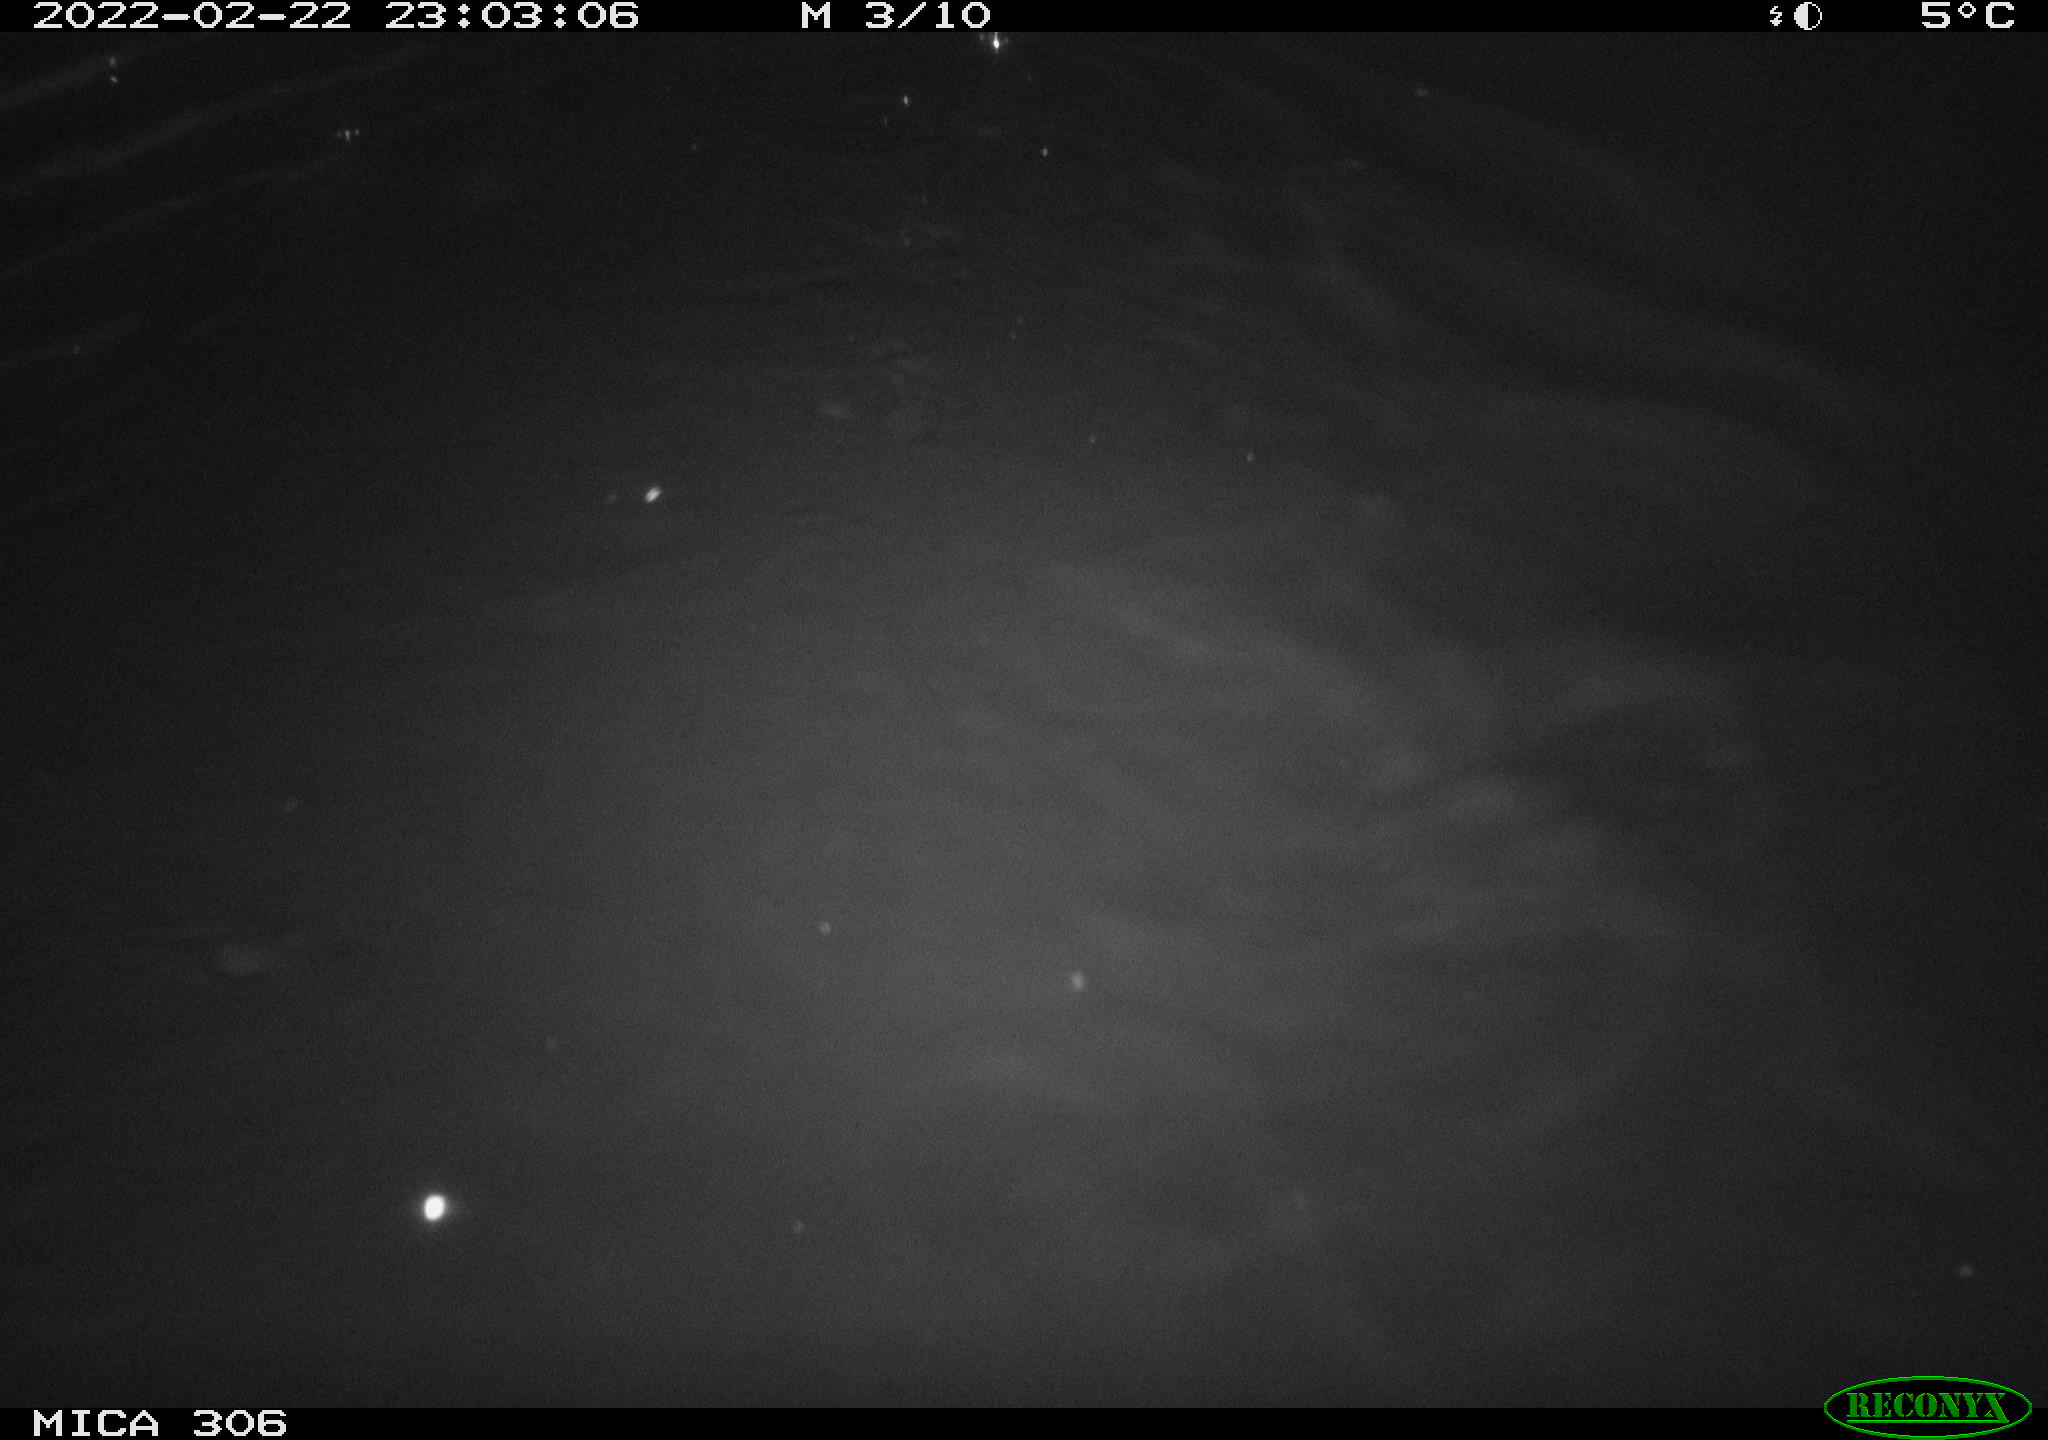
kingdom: Animalia
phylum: Chordata
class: Mammalia
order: Rodentia
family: Cricetidae
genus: Ondatra
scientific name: Ondatra zibethicus
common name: Muskrat
